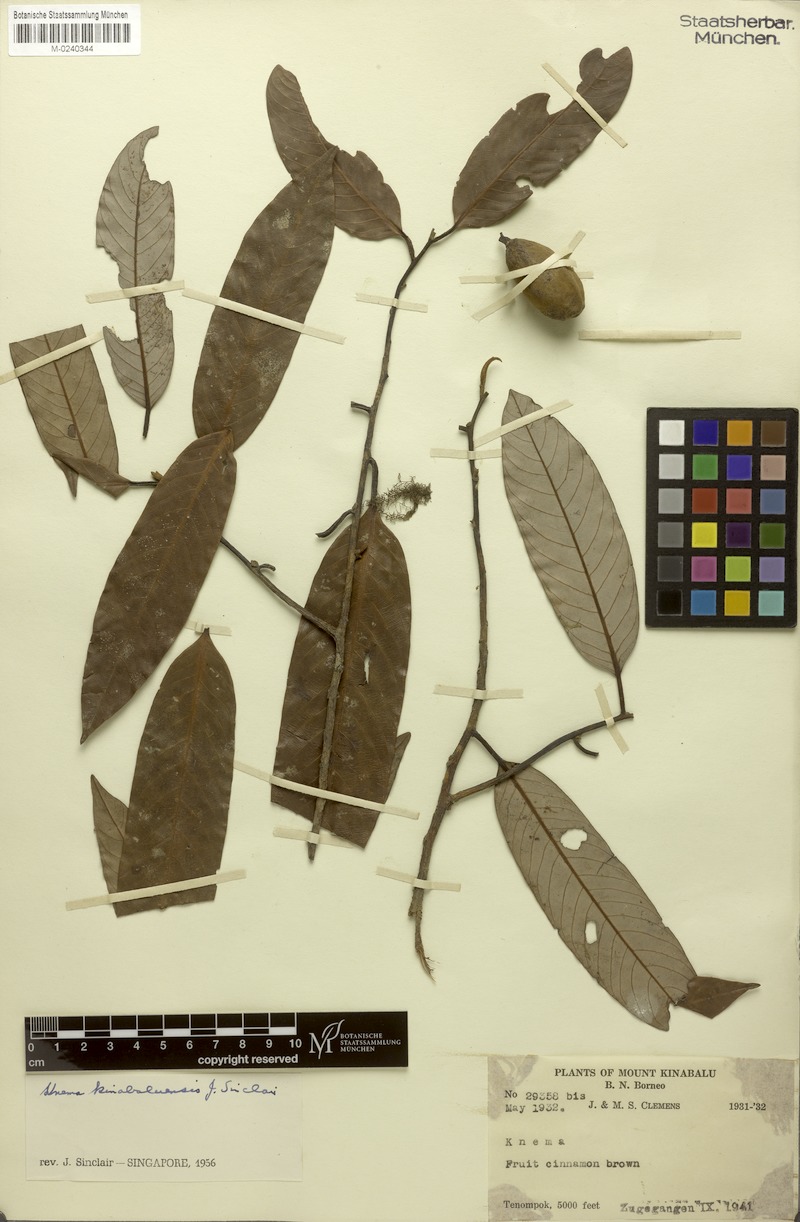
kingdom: Plantae
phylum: Tracheophyta
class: Magnoliopsida
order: Magnoliales
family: Myristicaceae
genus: Knema
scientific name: Knema kinabaluensis
